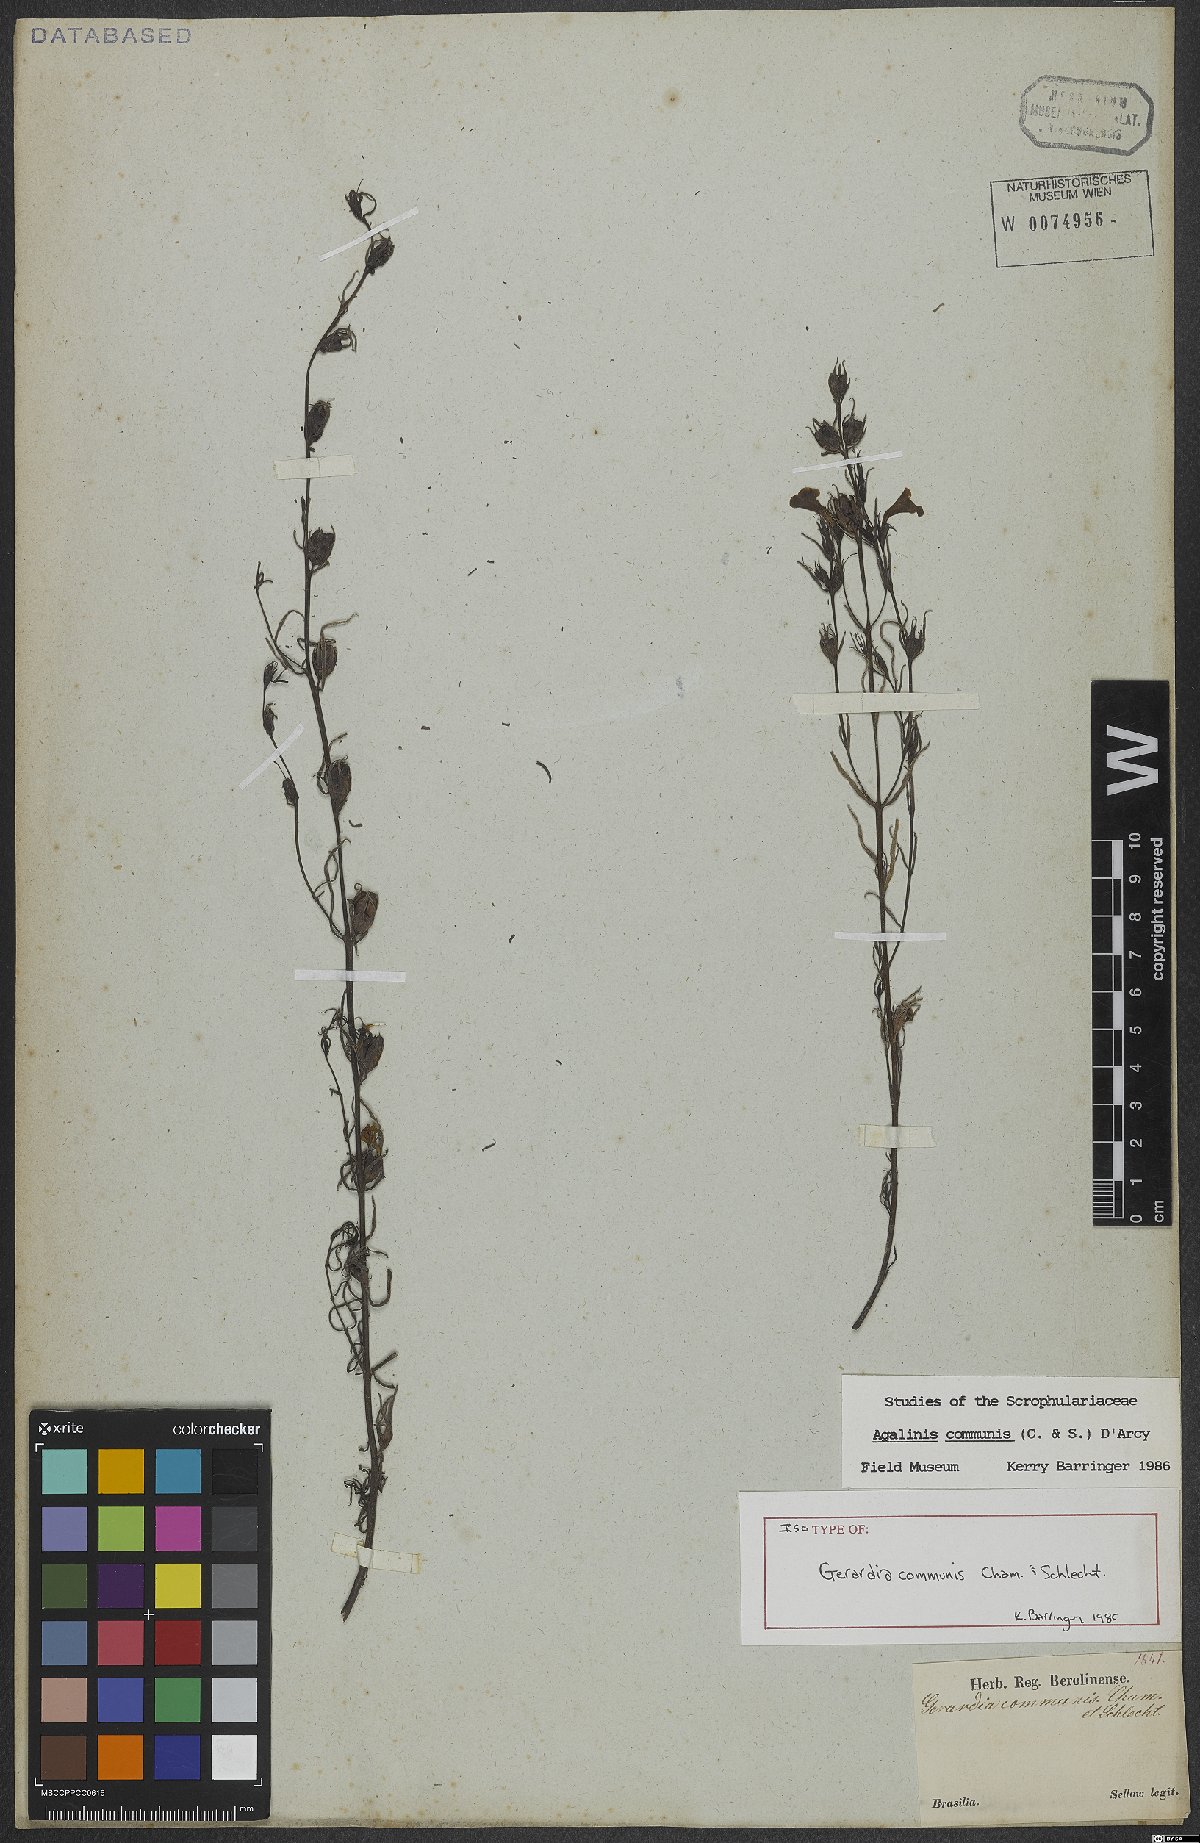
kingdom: Plantae
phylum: Tracheophyta
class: Magnoliopsida
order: Lamiales
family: Scrophulariaceae
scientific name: Scrophulariaceae
